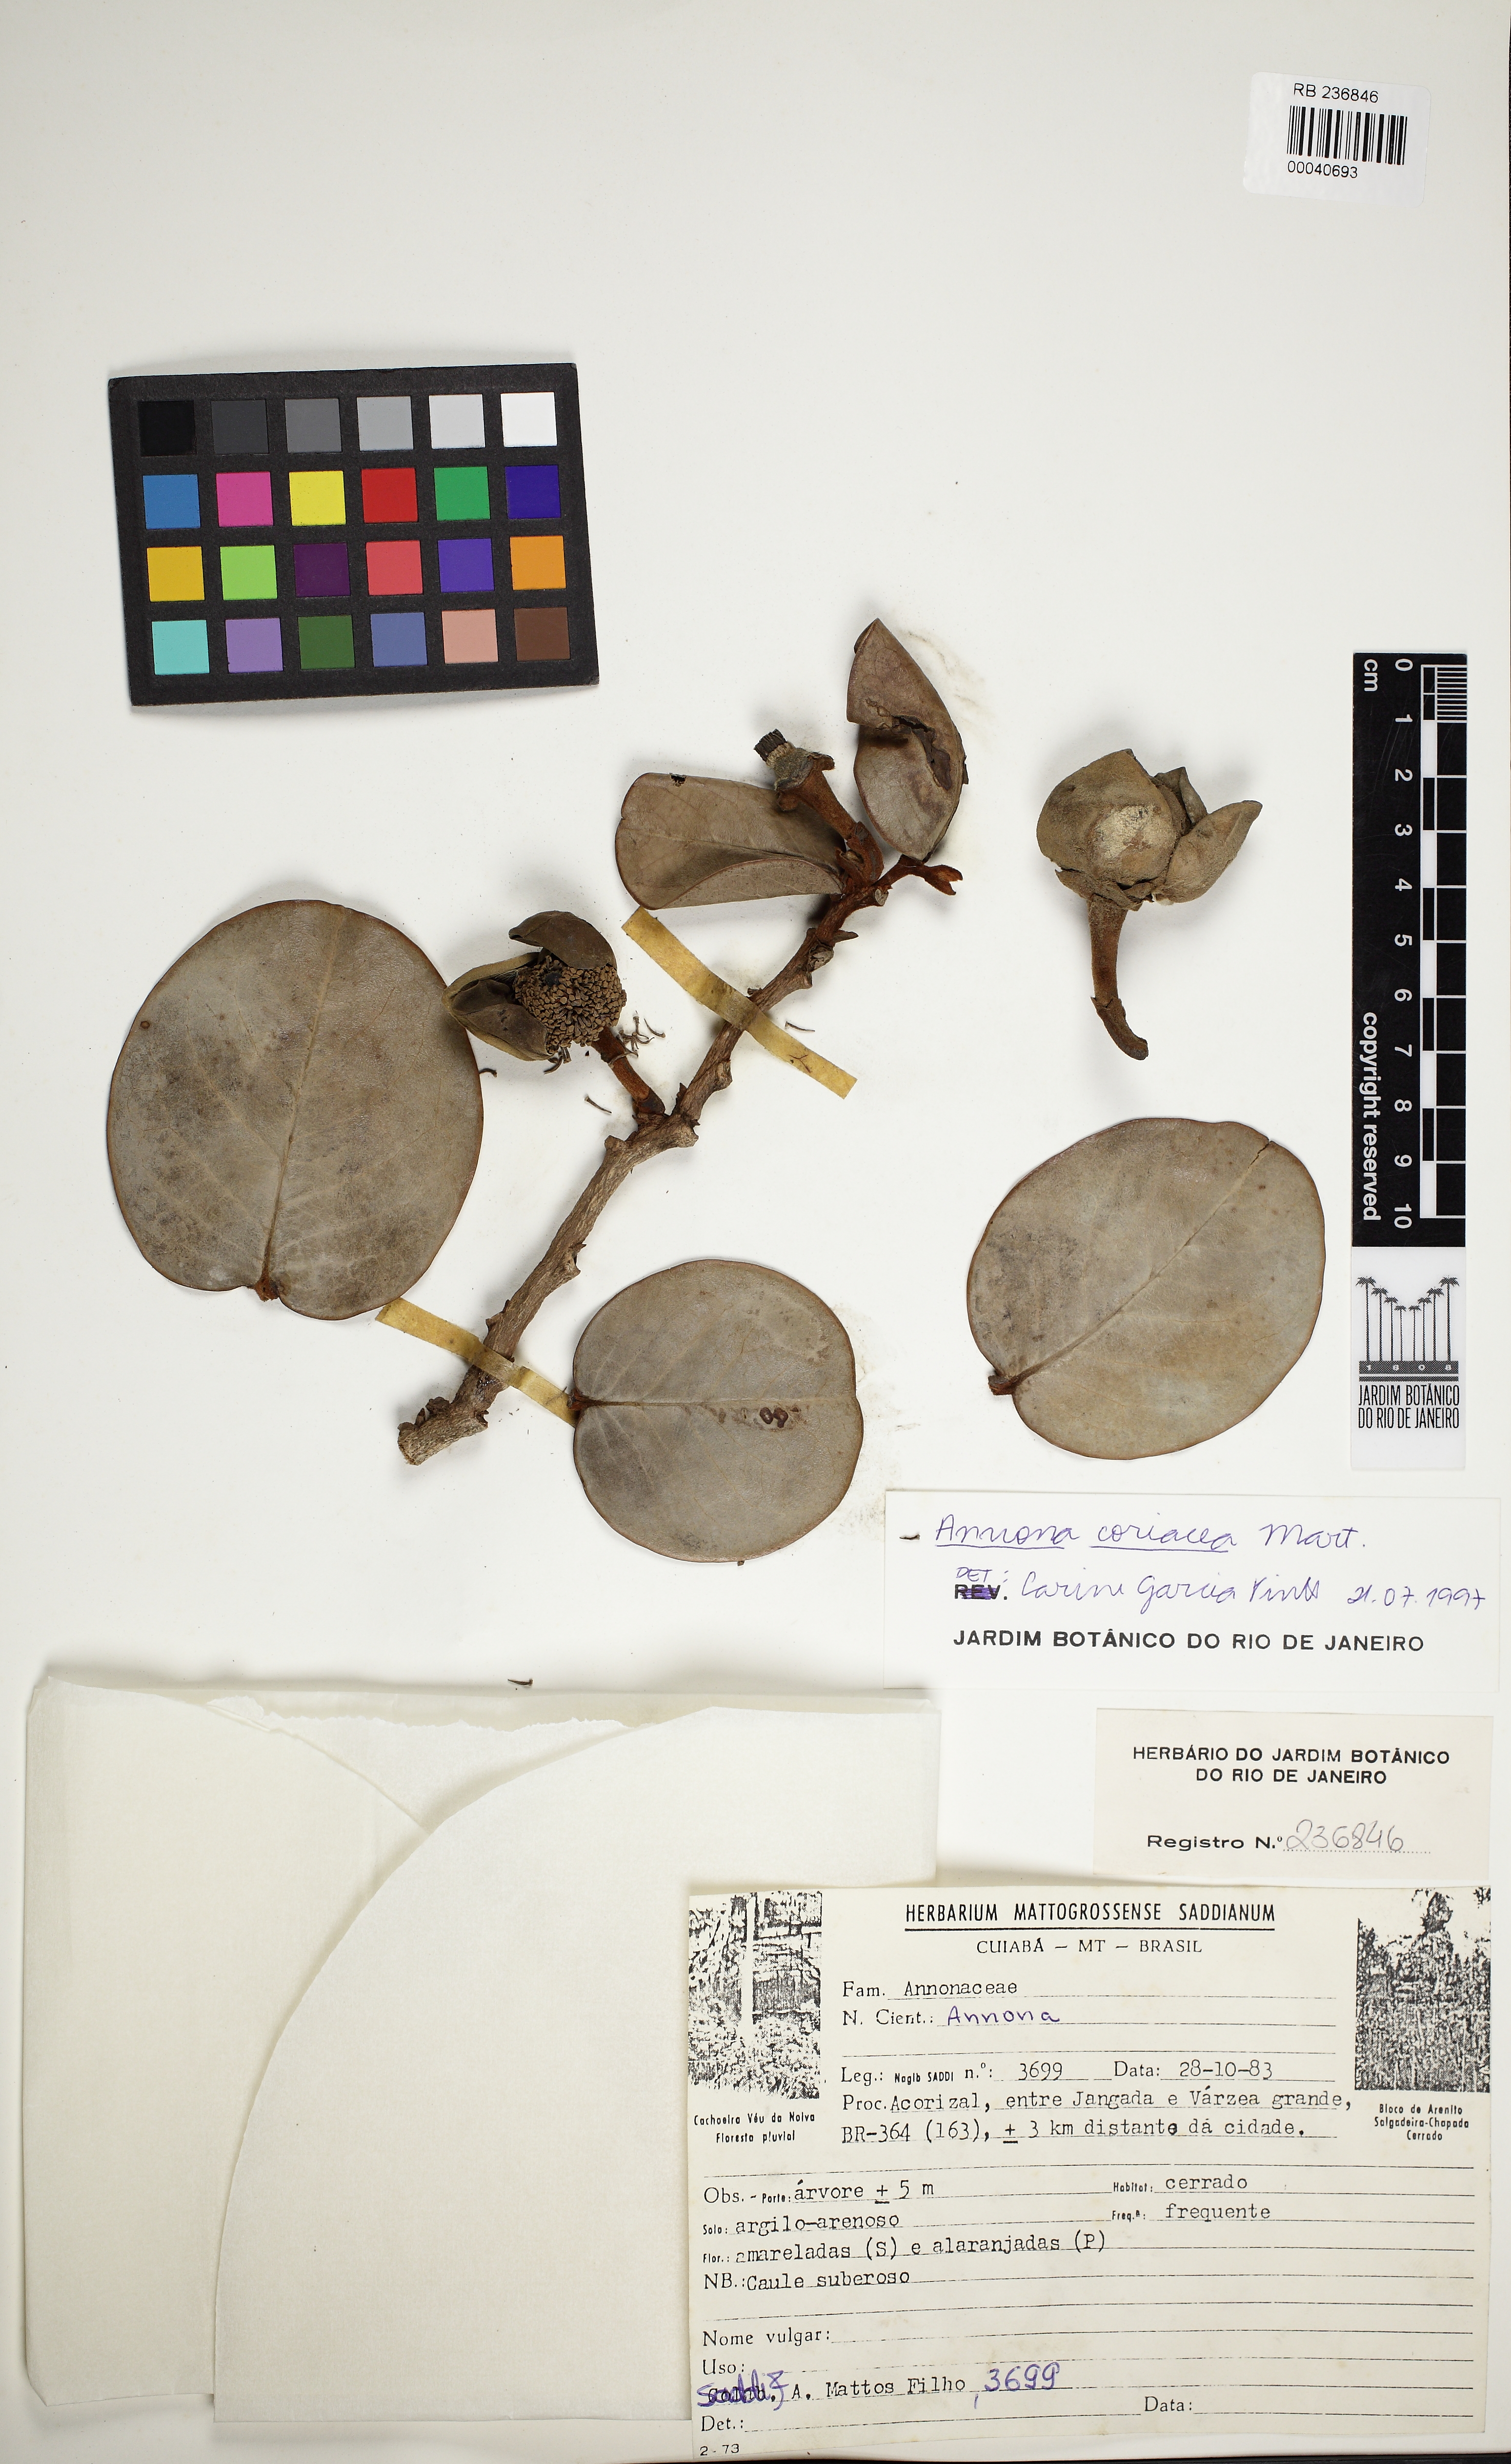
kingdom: Plantae
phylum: Tracheophyta
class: Magnoliopsida
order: Magnoliales
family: Annonaceae
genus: Annona
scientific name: Annona coriacea
